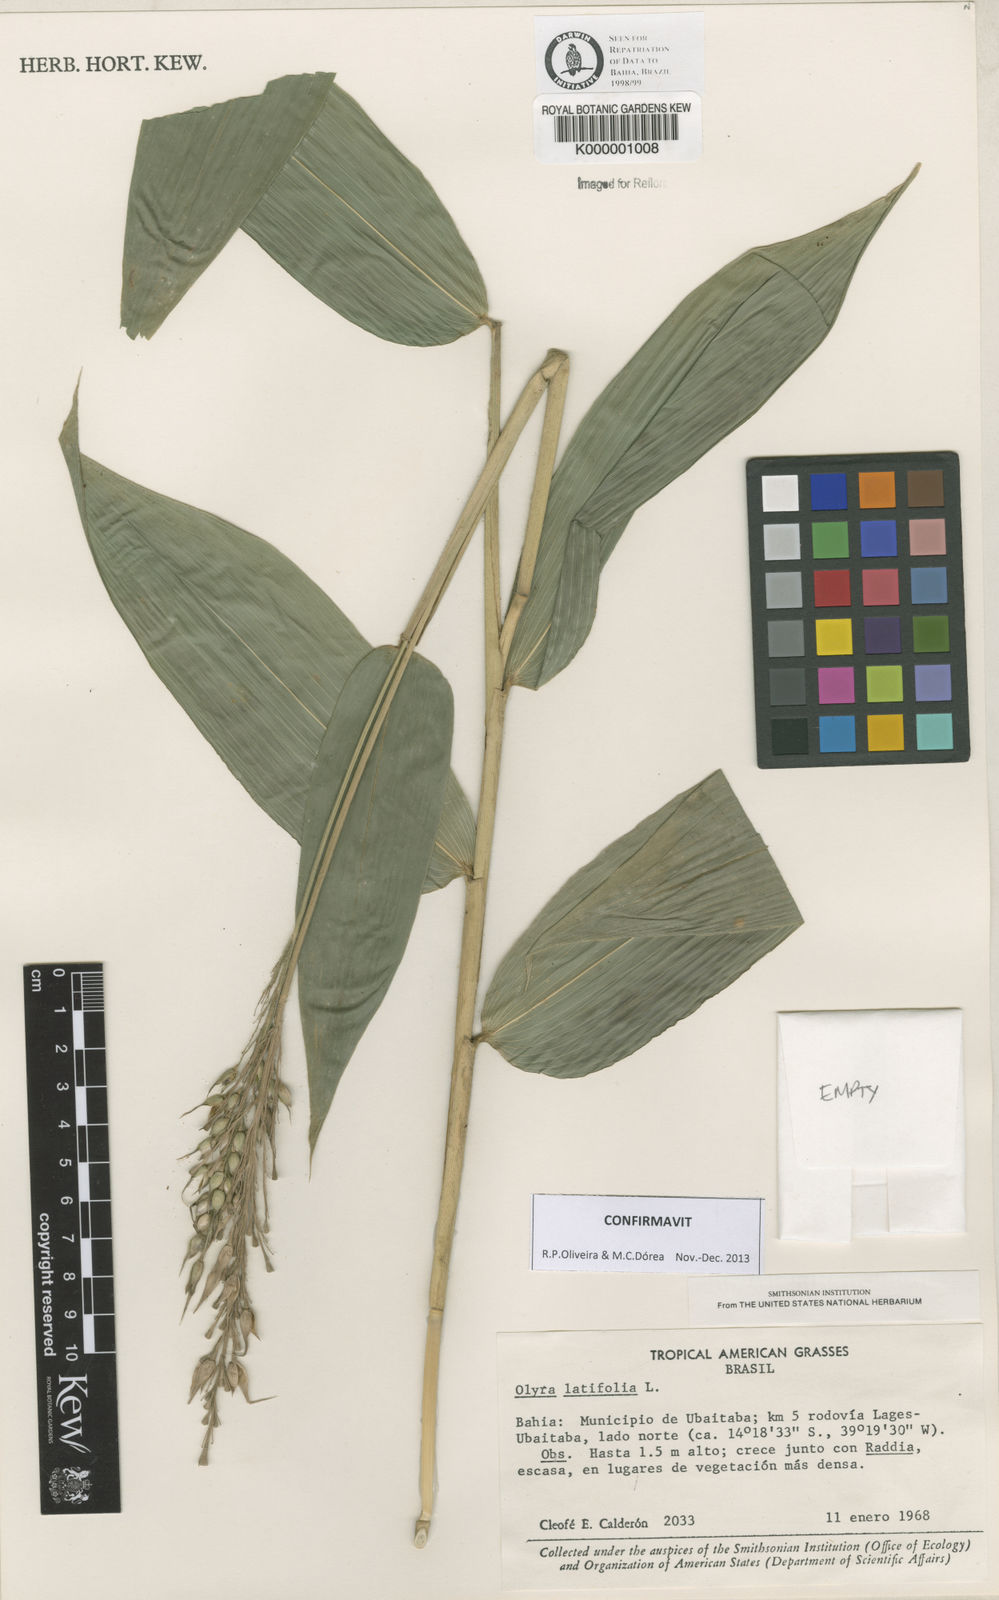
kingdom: Plantae
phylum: Tracheophyta
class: Liliopsida
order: Poales
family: Poaceae
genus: Olyra
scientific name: Olyra latifolia
